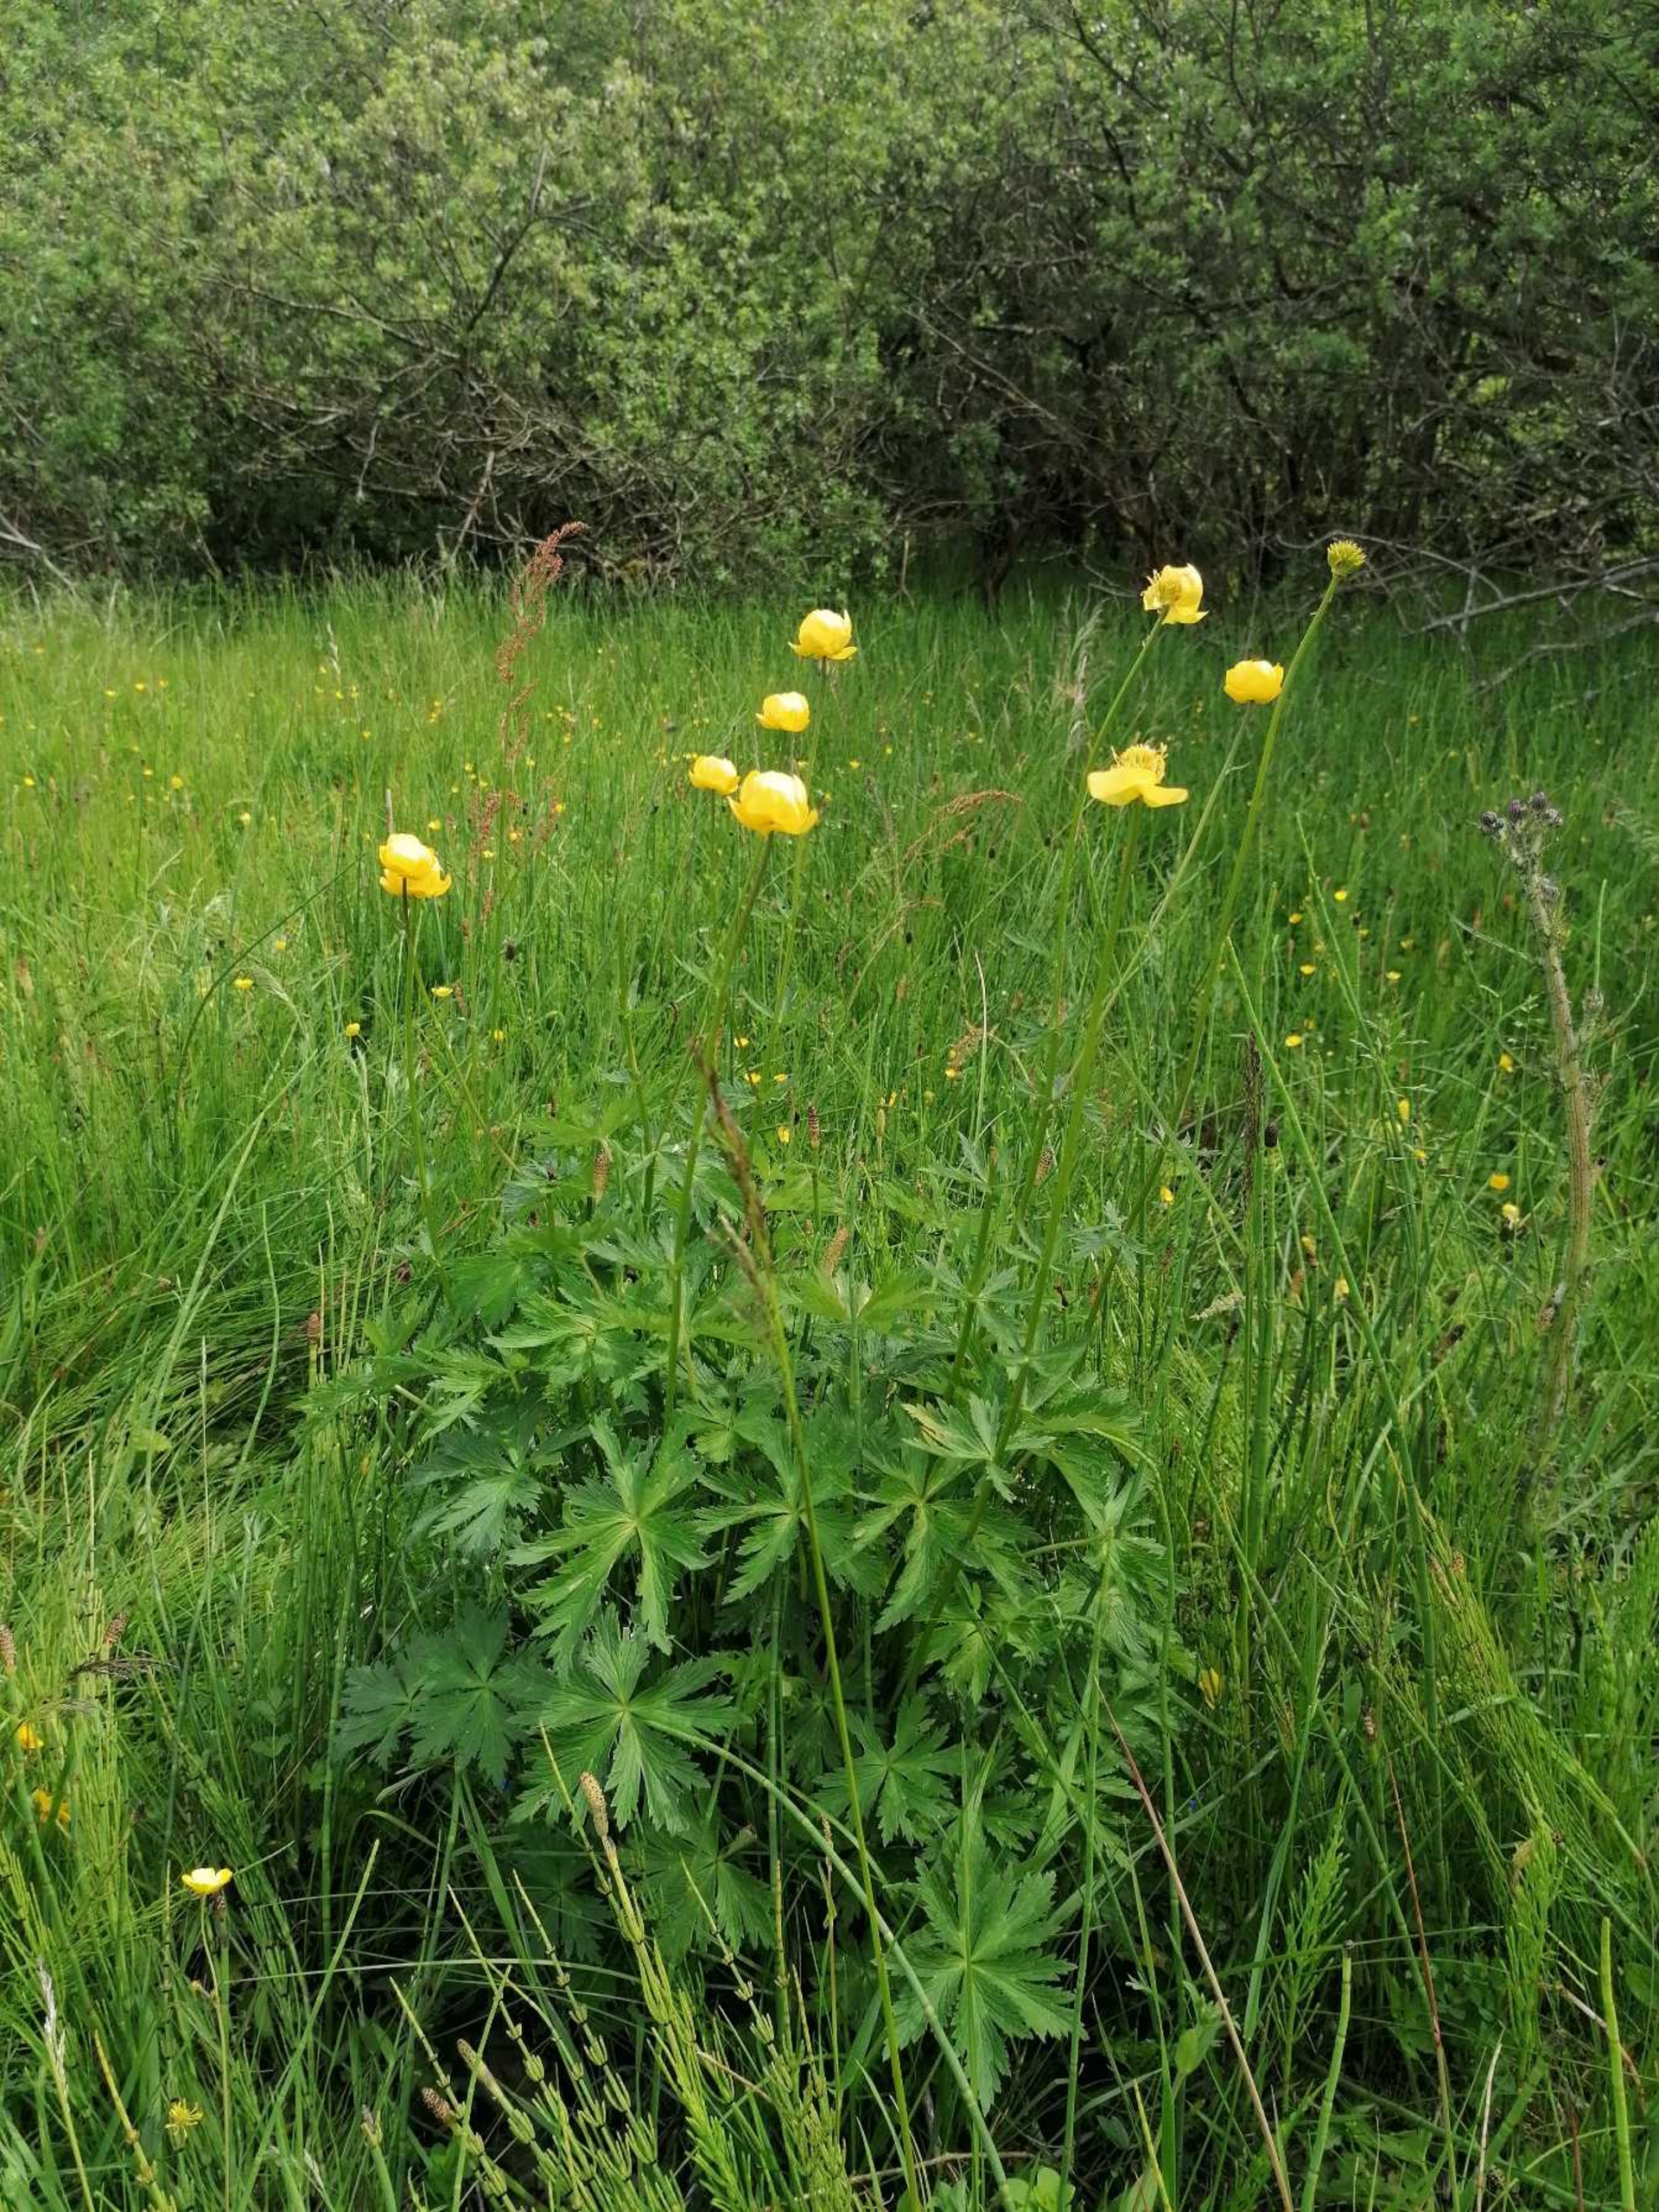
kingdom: Plantae
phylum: Tracheophyta
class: Magnoliopsida
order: Ranunculales
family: Ranunculaceae
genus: Trollius
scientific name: Trollius europaeus
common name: Engblomme
